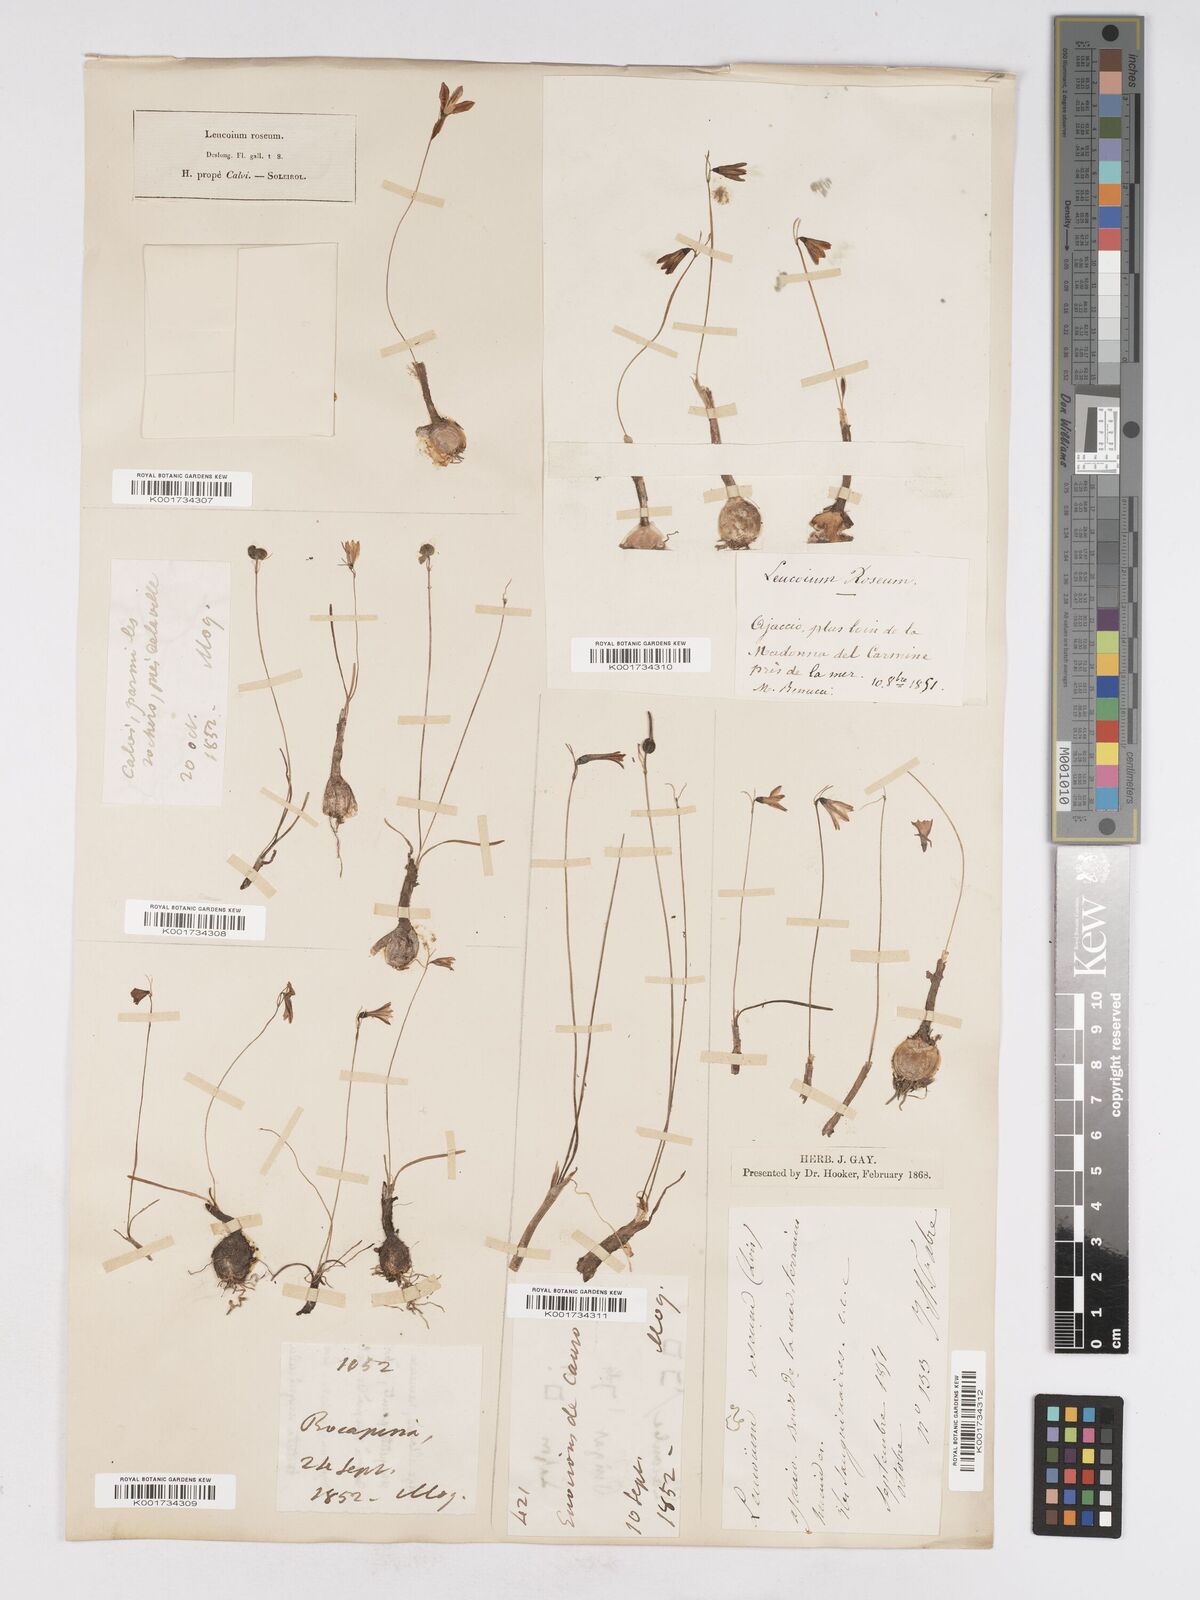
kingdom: Plantae
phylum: Tracheophyta
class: Liliopsida
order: Asparagales
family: Amaryllidaceae
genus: Acis
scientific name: Acis rosea
